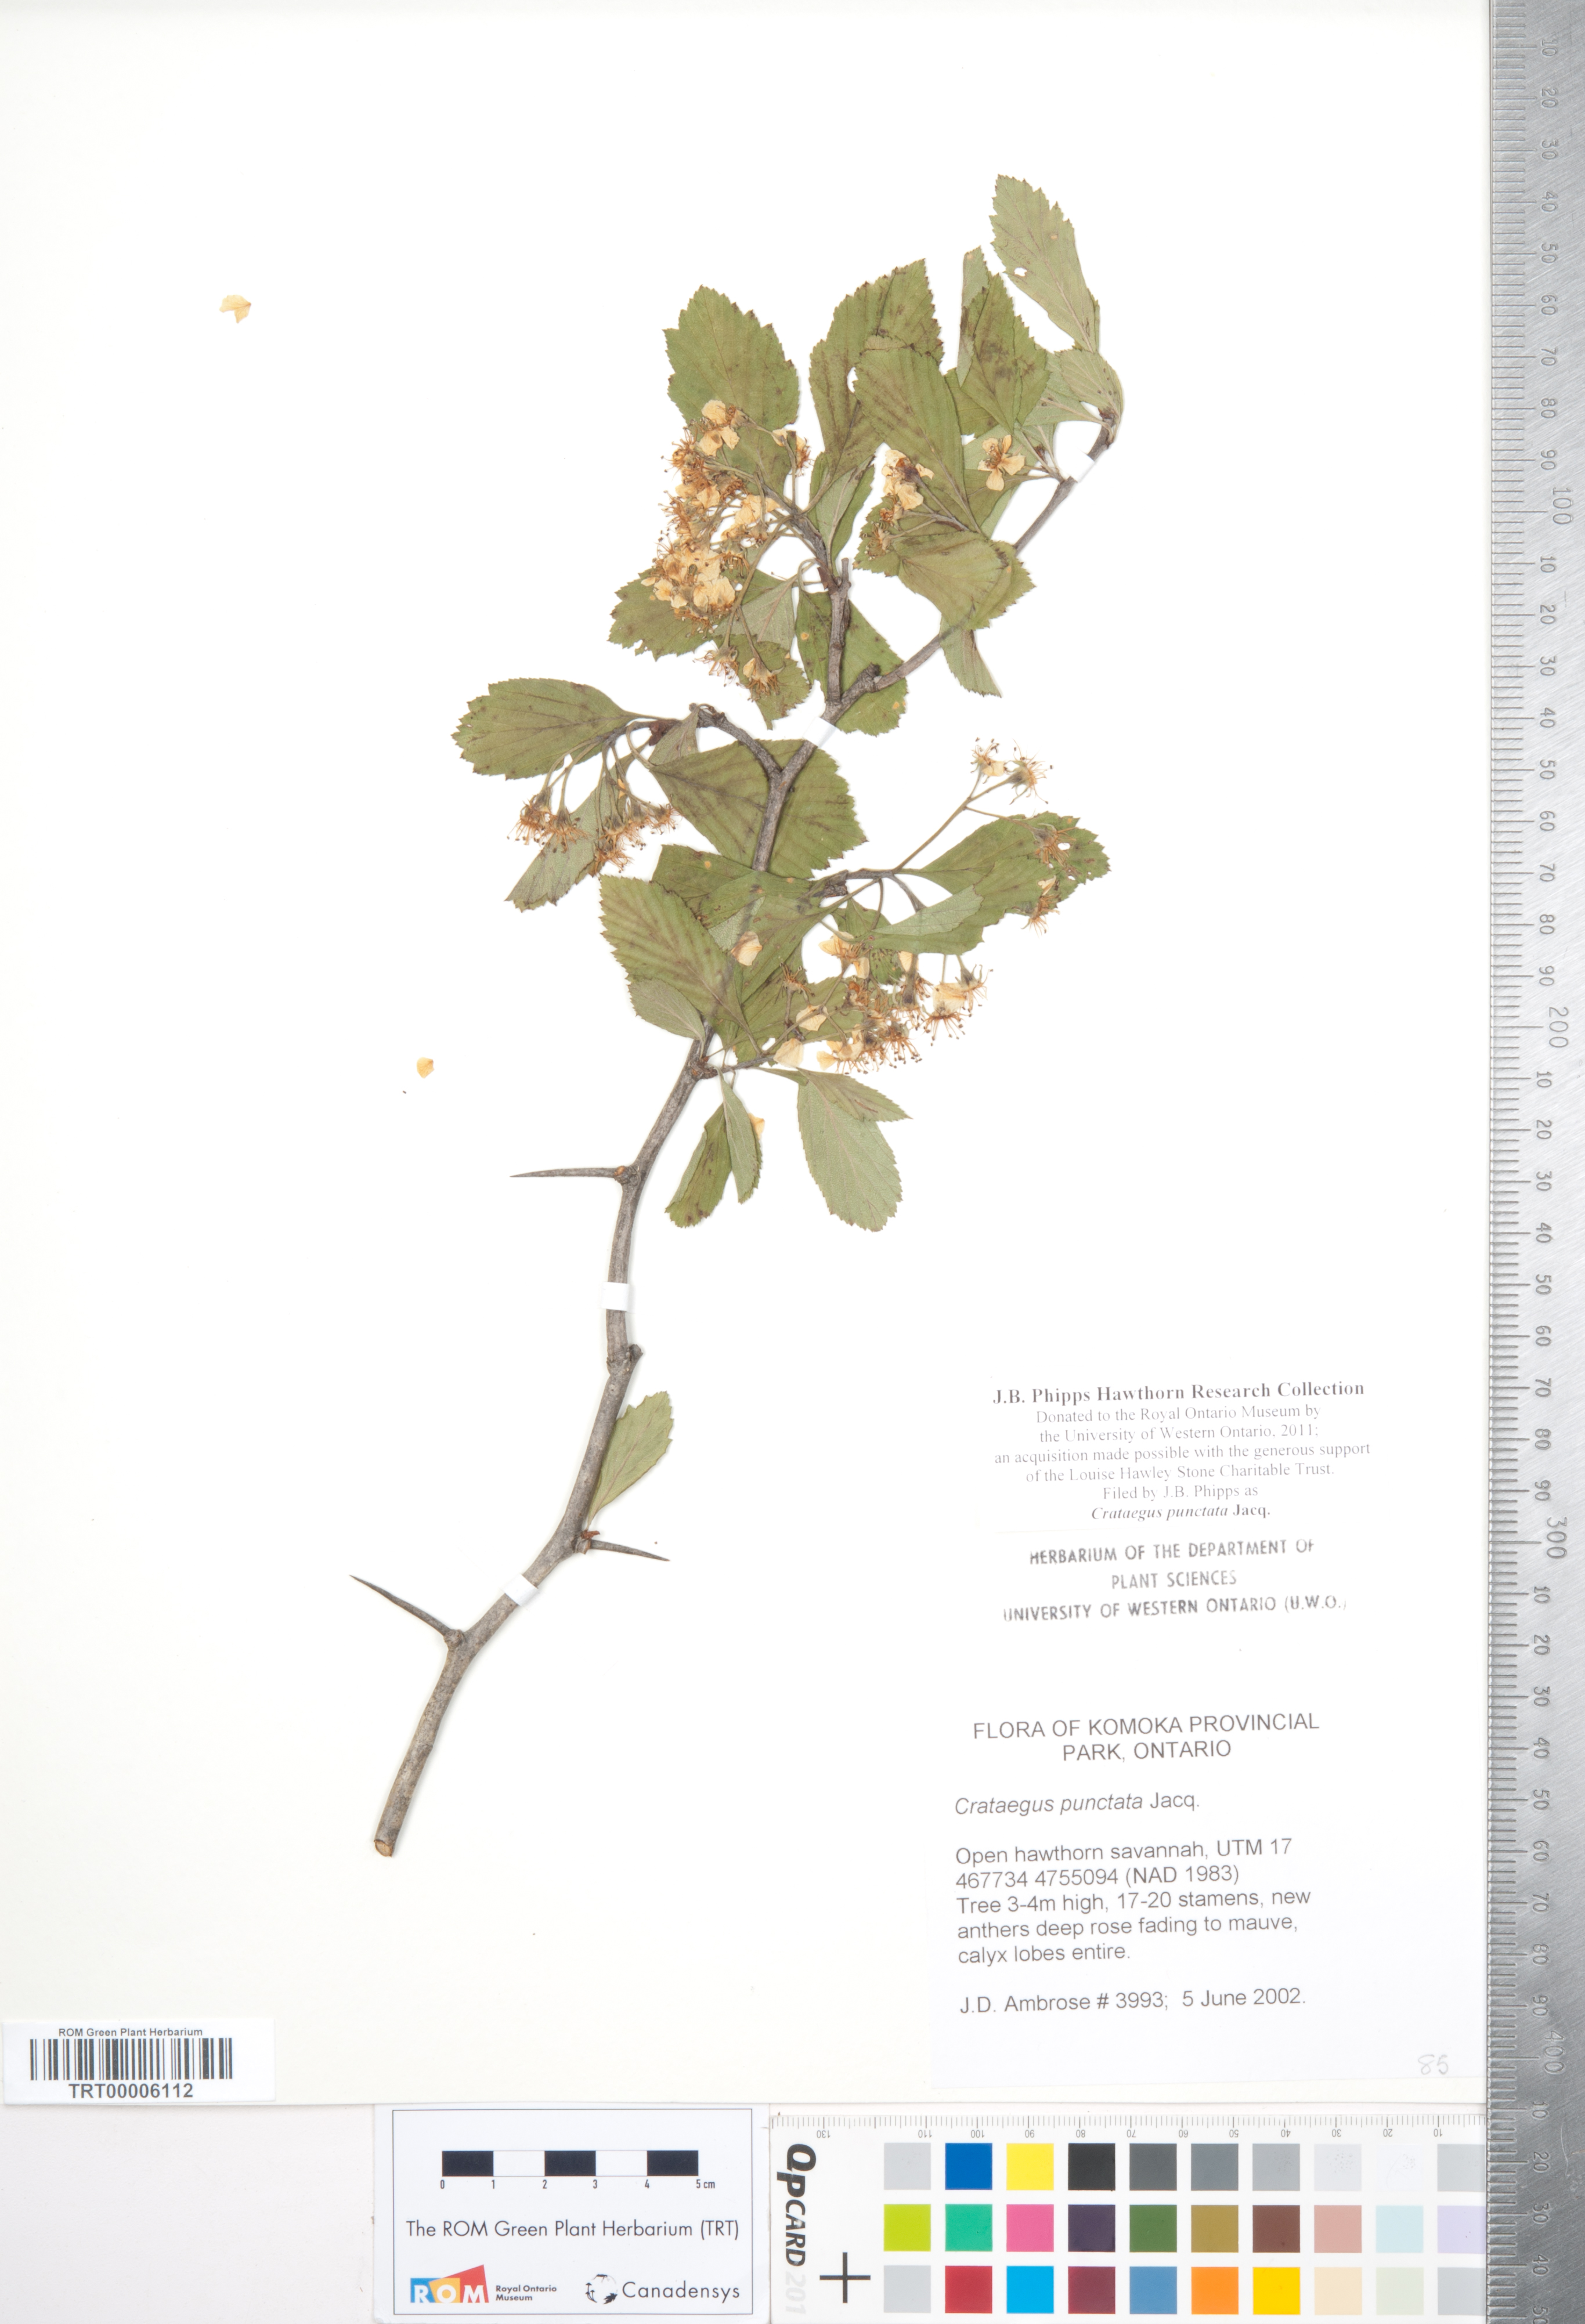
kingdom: Plantae
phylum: Tracheophyta
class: Magnoliopsida
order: Rosales
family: Rosaceae
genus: Crataegus
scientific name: Crataegus punctata
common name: Dotted hawthorn
